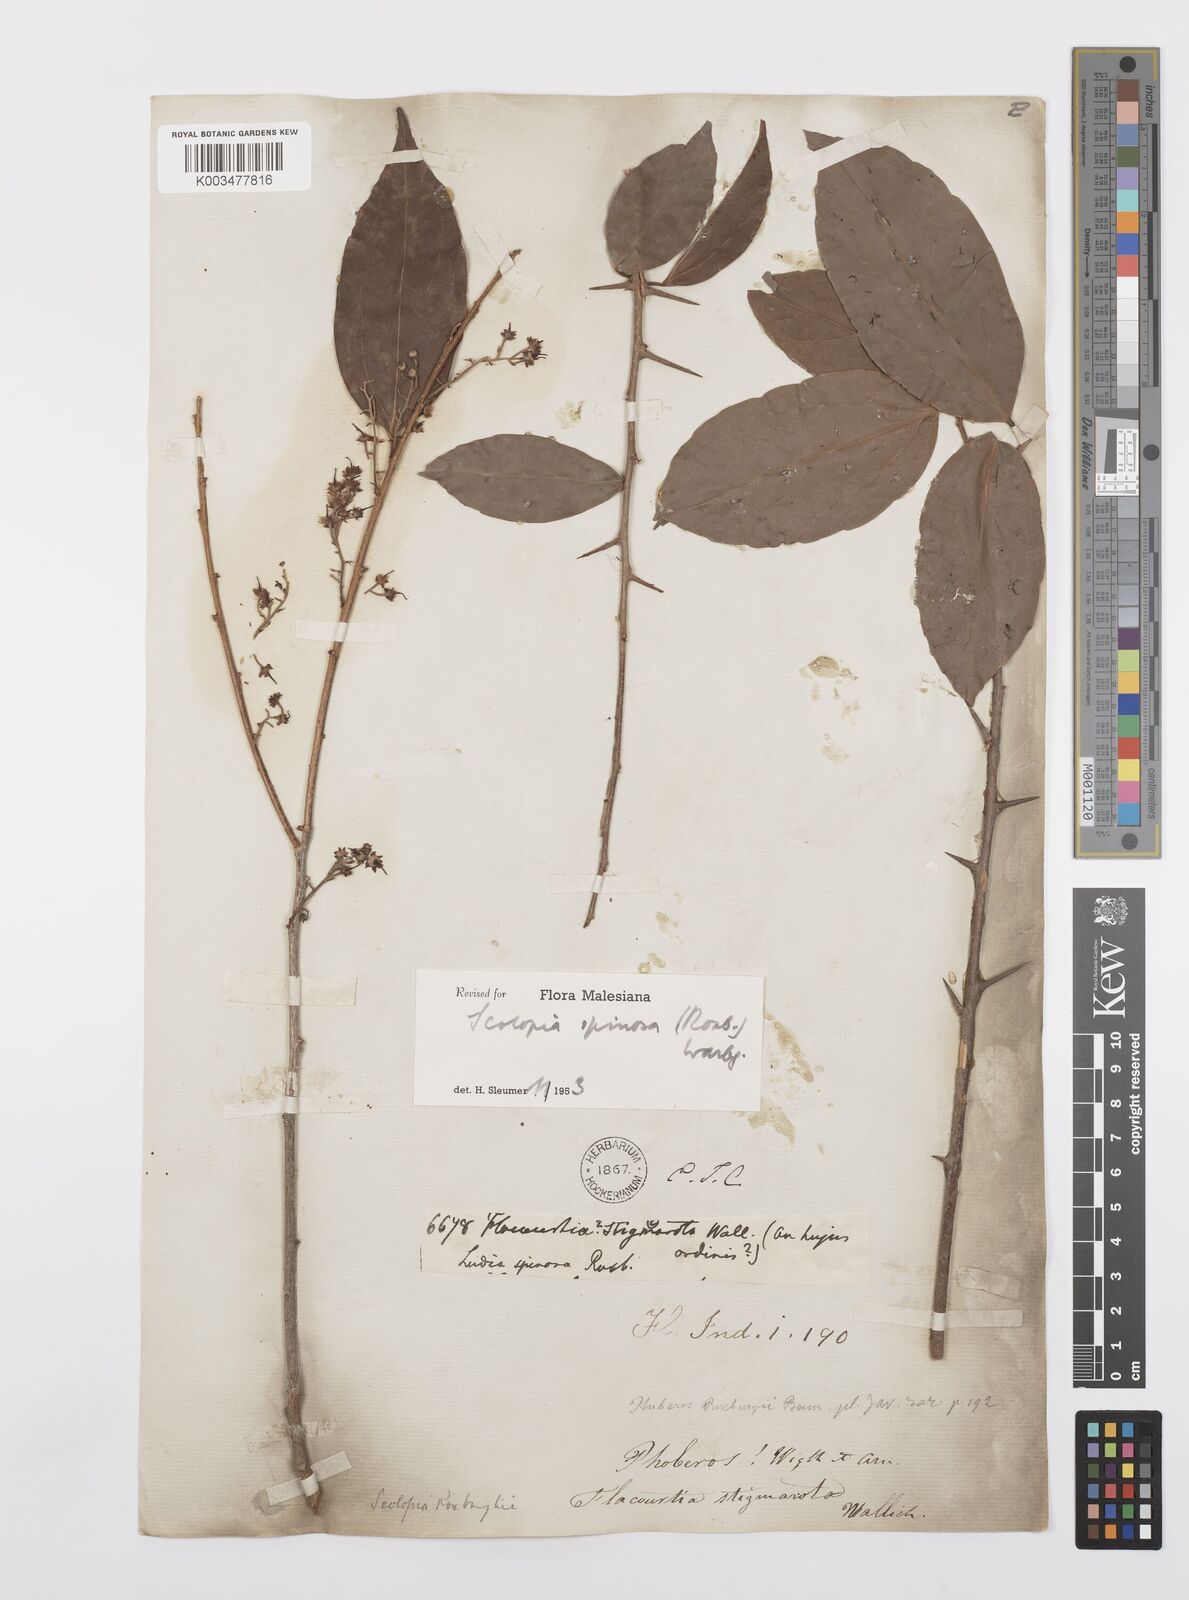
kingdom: Plantae
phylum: Tracheophyta
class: Magnoliopsida
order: Malpighiales
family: Salicaceae
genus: Scolopia
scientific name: Scolopia spinosa
